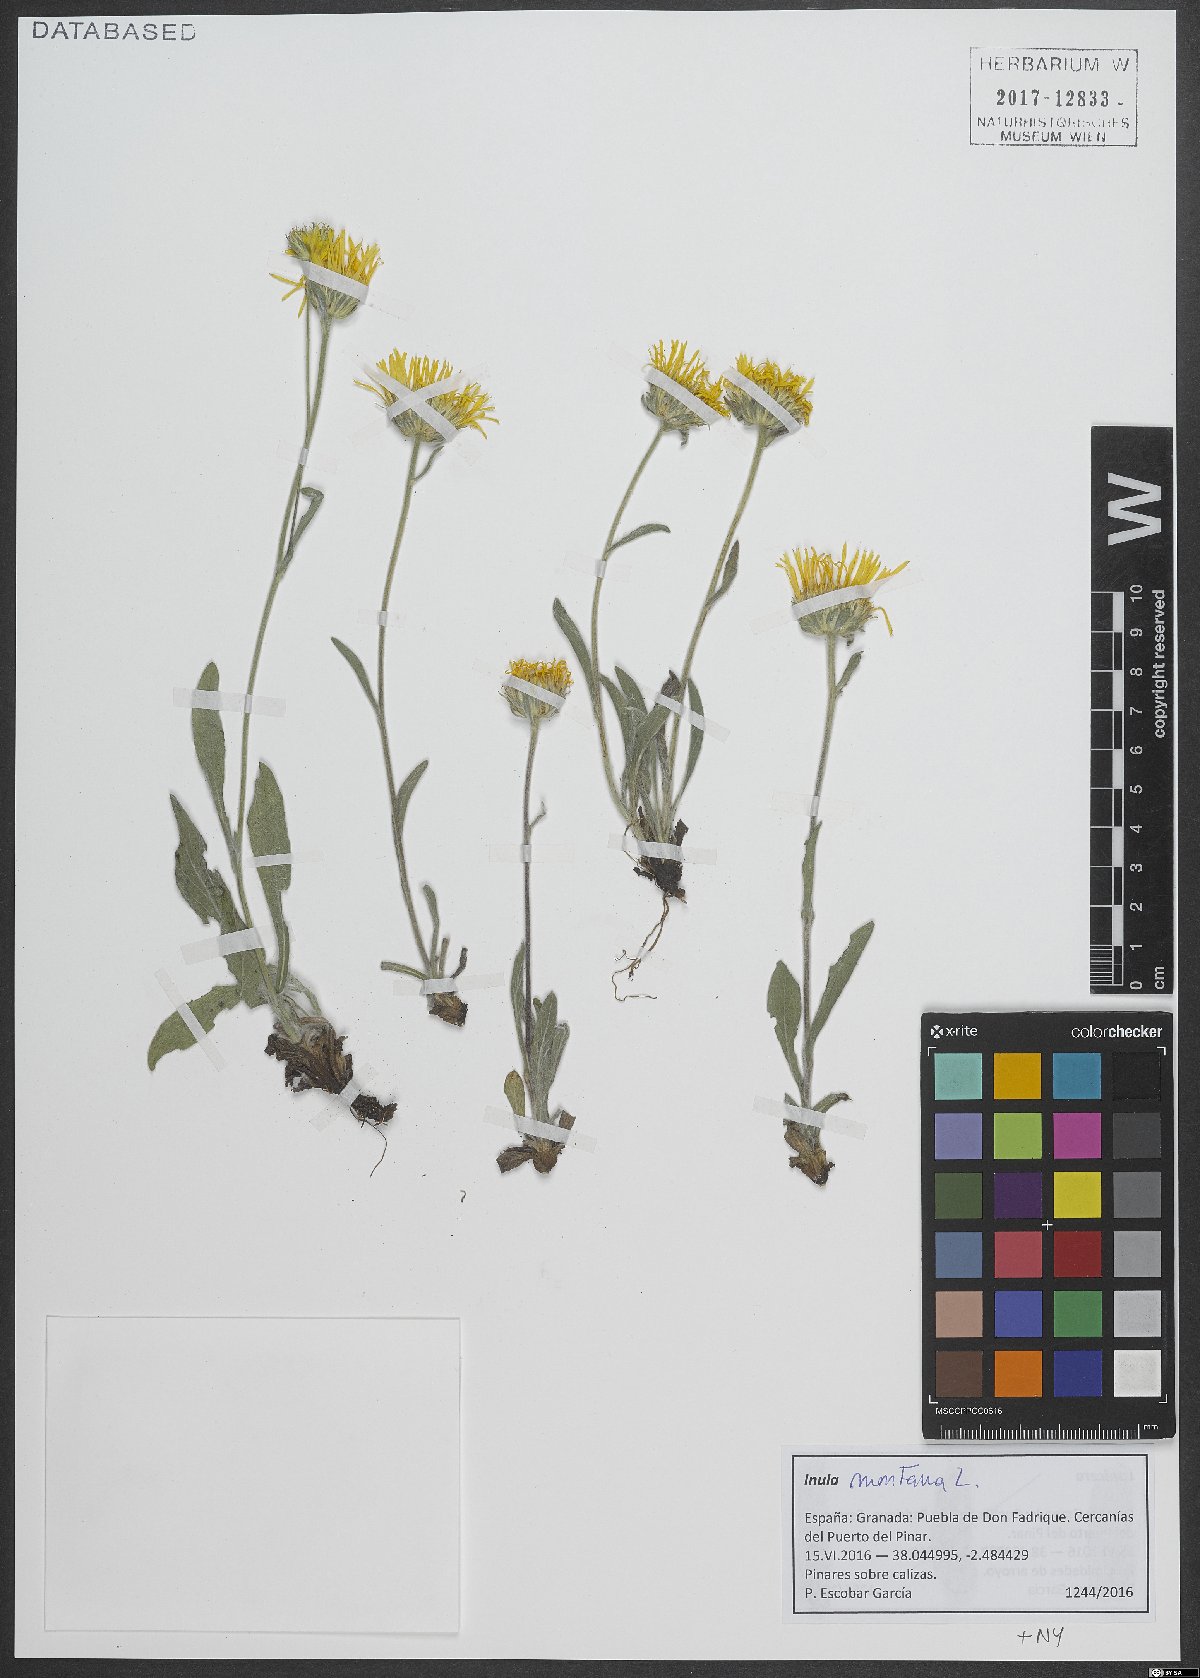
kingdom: Plantae
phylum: Tracheophyta
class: Magnoliopsida
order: Asterales
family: Asteraceae
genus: Pentanema
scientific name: Pentanema montanum
